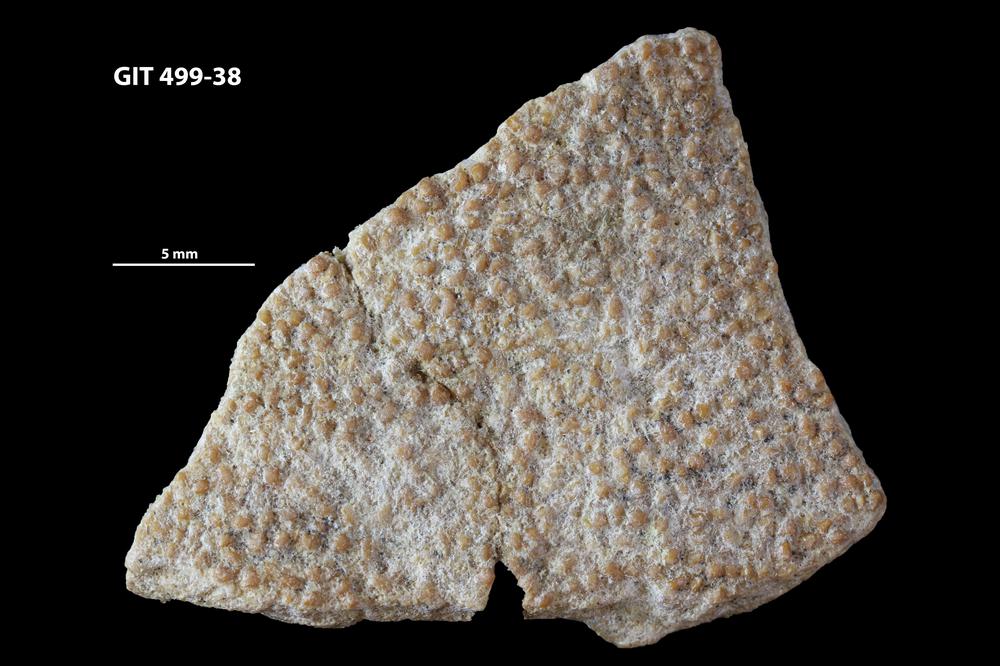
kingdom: Animalia
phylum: Chordata
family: Holoptychiidae
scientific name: Holoptychiidae
